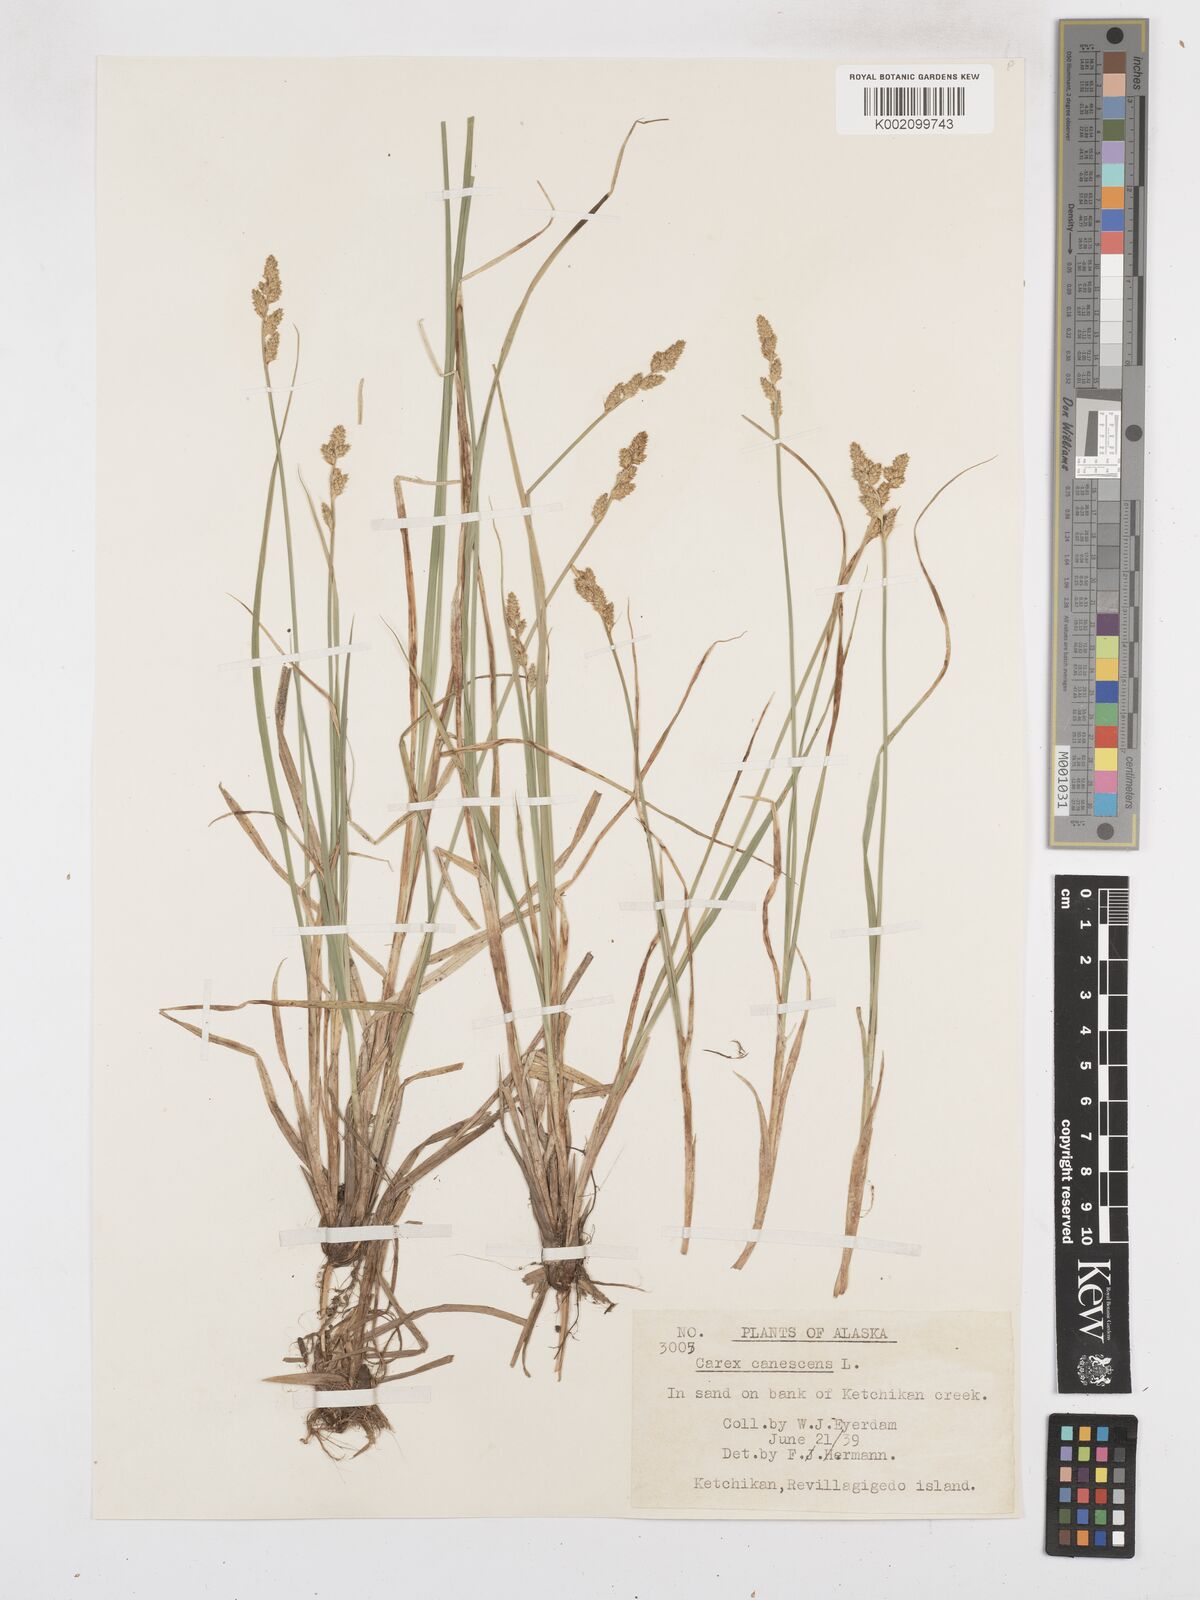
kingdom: Plantae
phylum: Tracheophyta
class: Liliopsida
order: Poales
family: Cyperaceae
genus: Carex
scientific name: Carex curta
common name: White sedge
